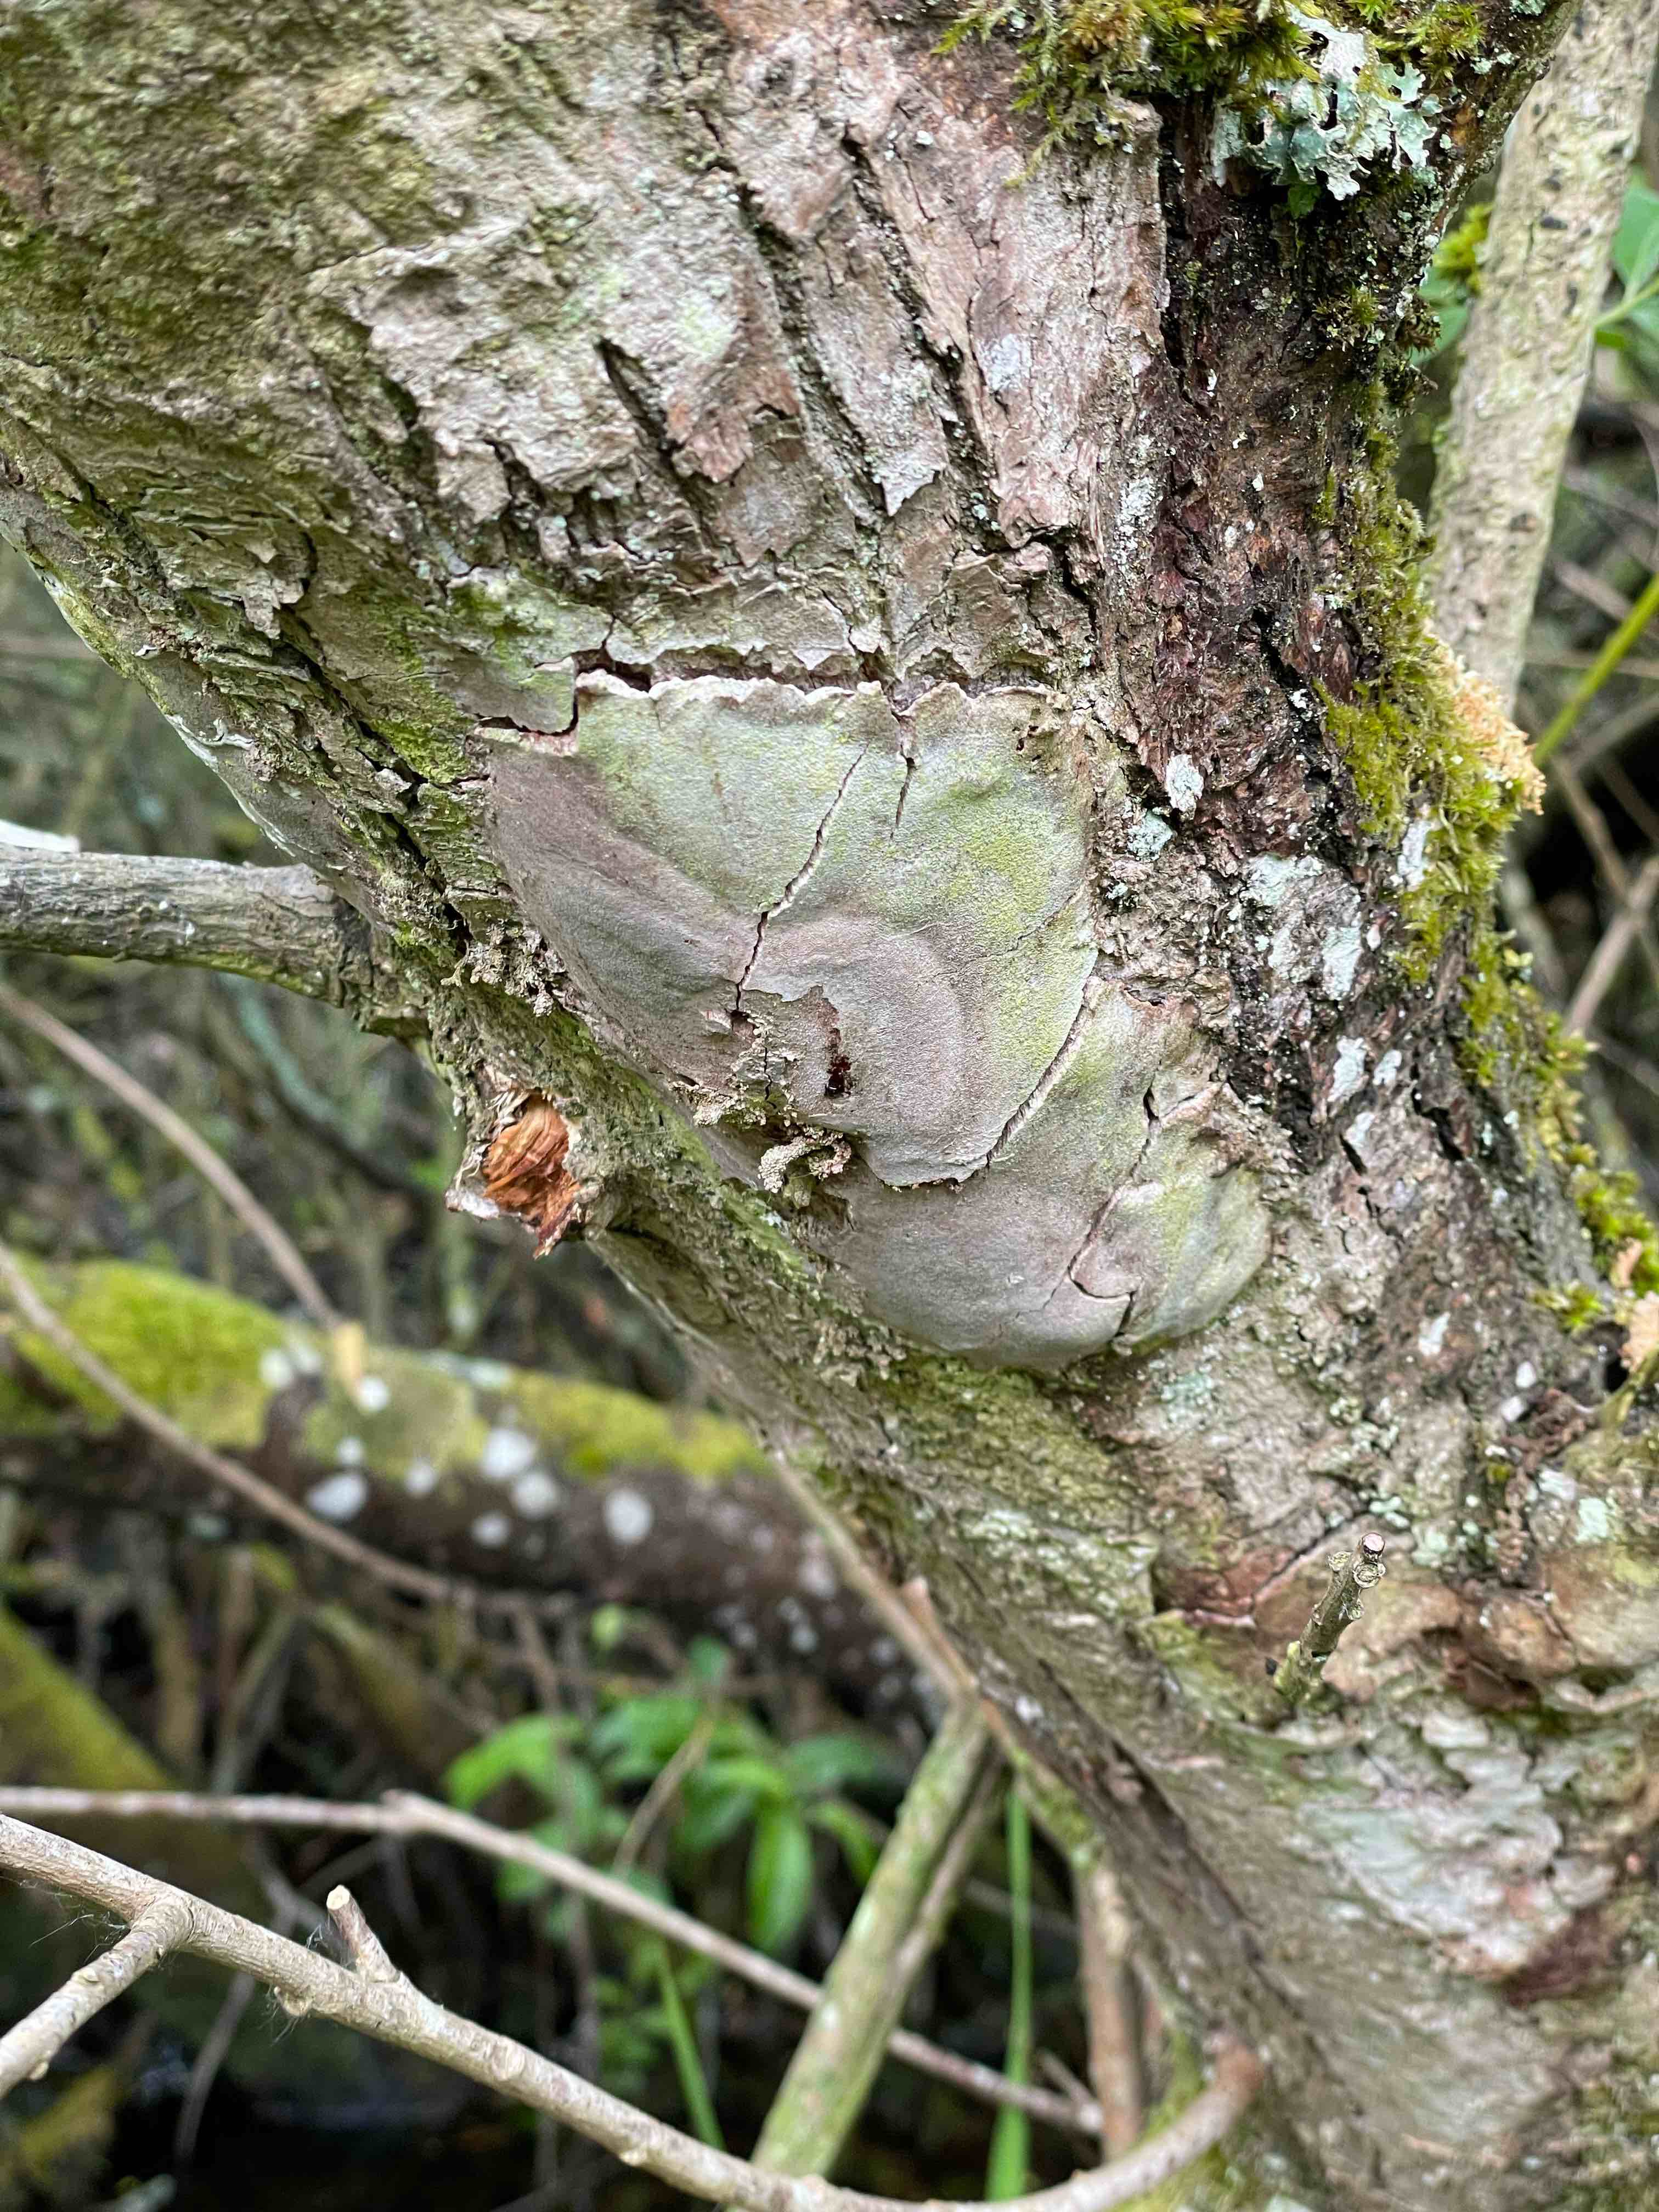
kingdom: Fungi
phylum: Basidiomycota
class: Agaricomycetes
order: Hymenochaetales
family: Hymenochaetaceae
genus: Fomitiporia
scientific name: Fomitiporia punctata
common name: pude-ildporesvamp
